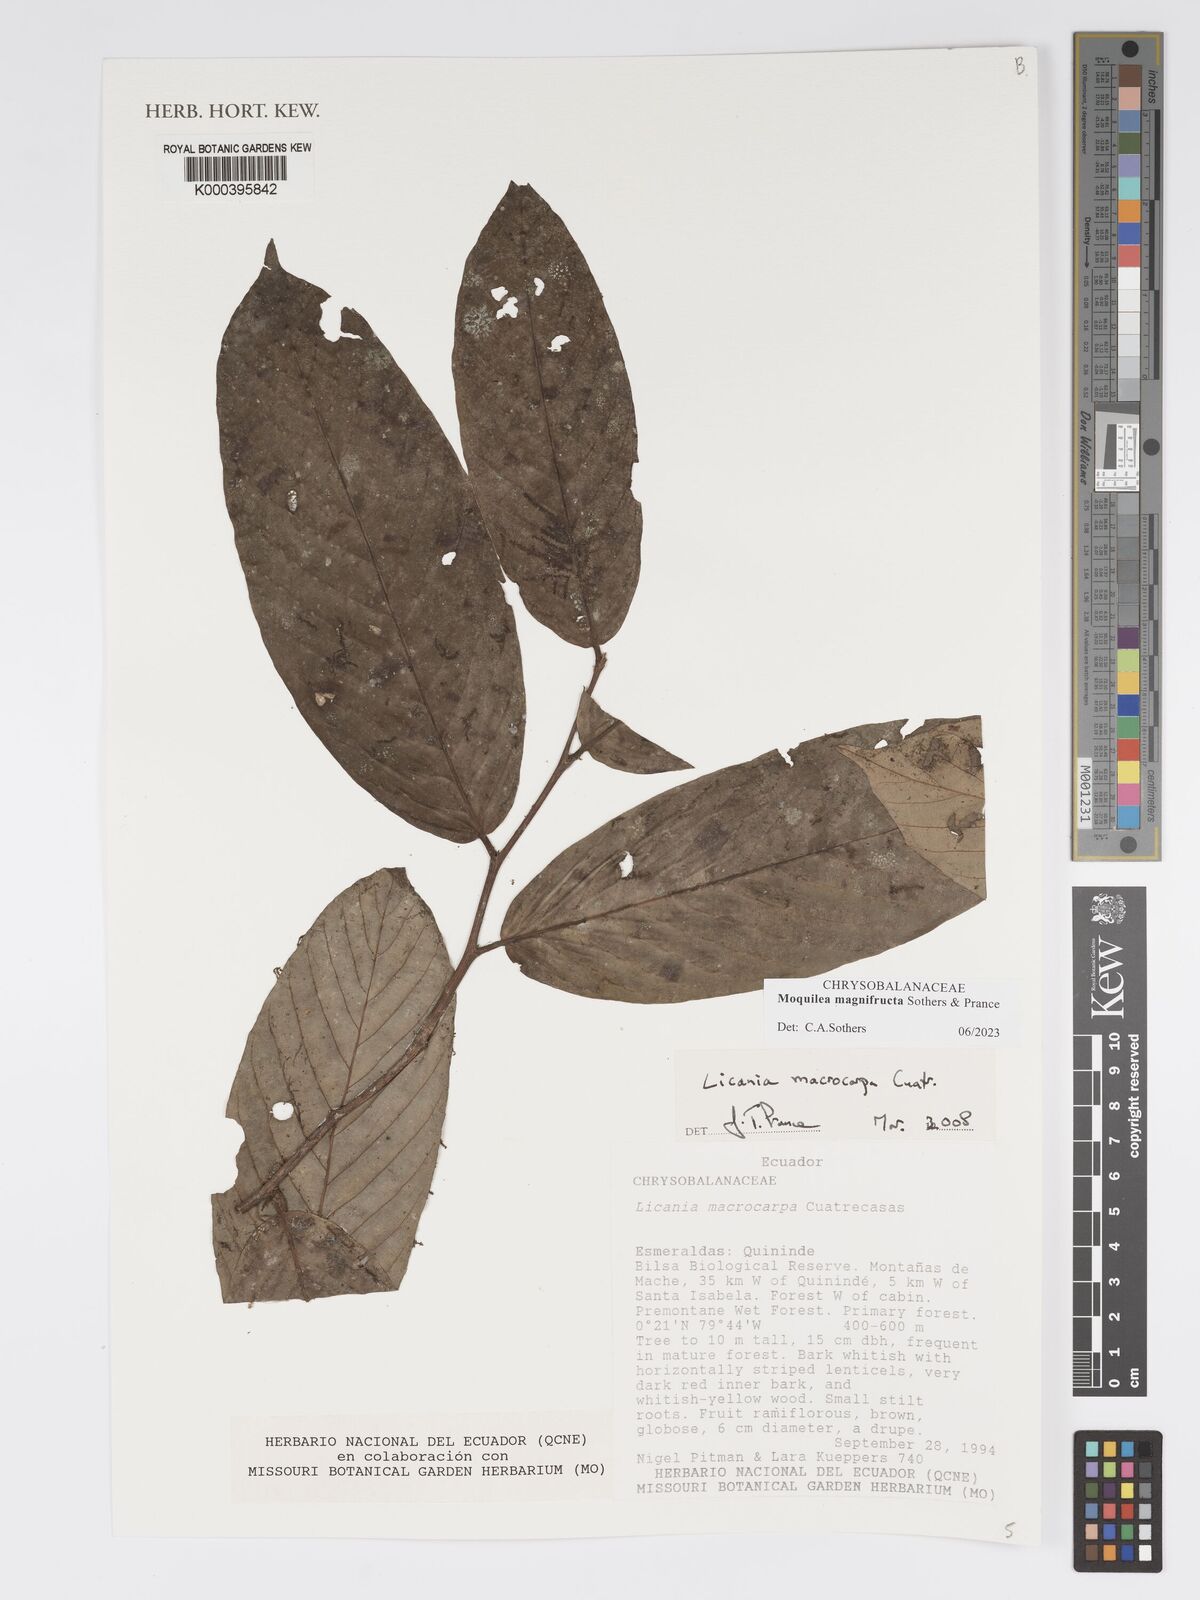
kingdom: Plantae
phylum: Tracheophyta
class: Magnoliopsida
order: Malpighiales
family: Chrysobalanaceae
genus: Moquilea
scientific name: Moquilea magnifructa
